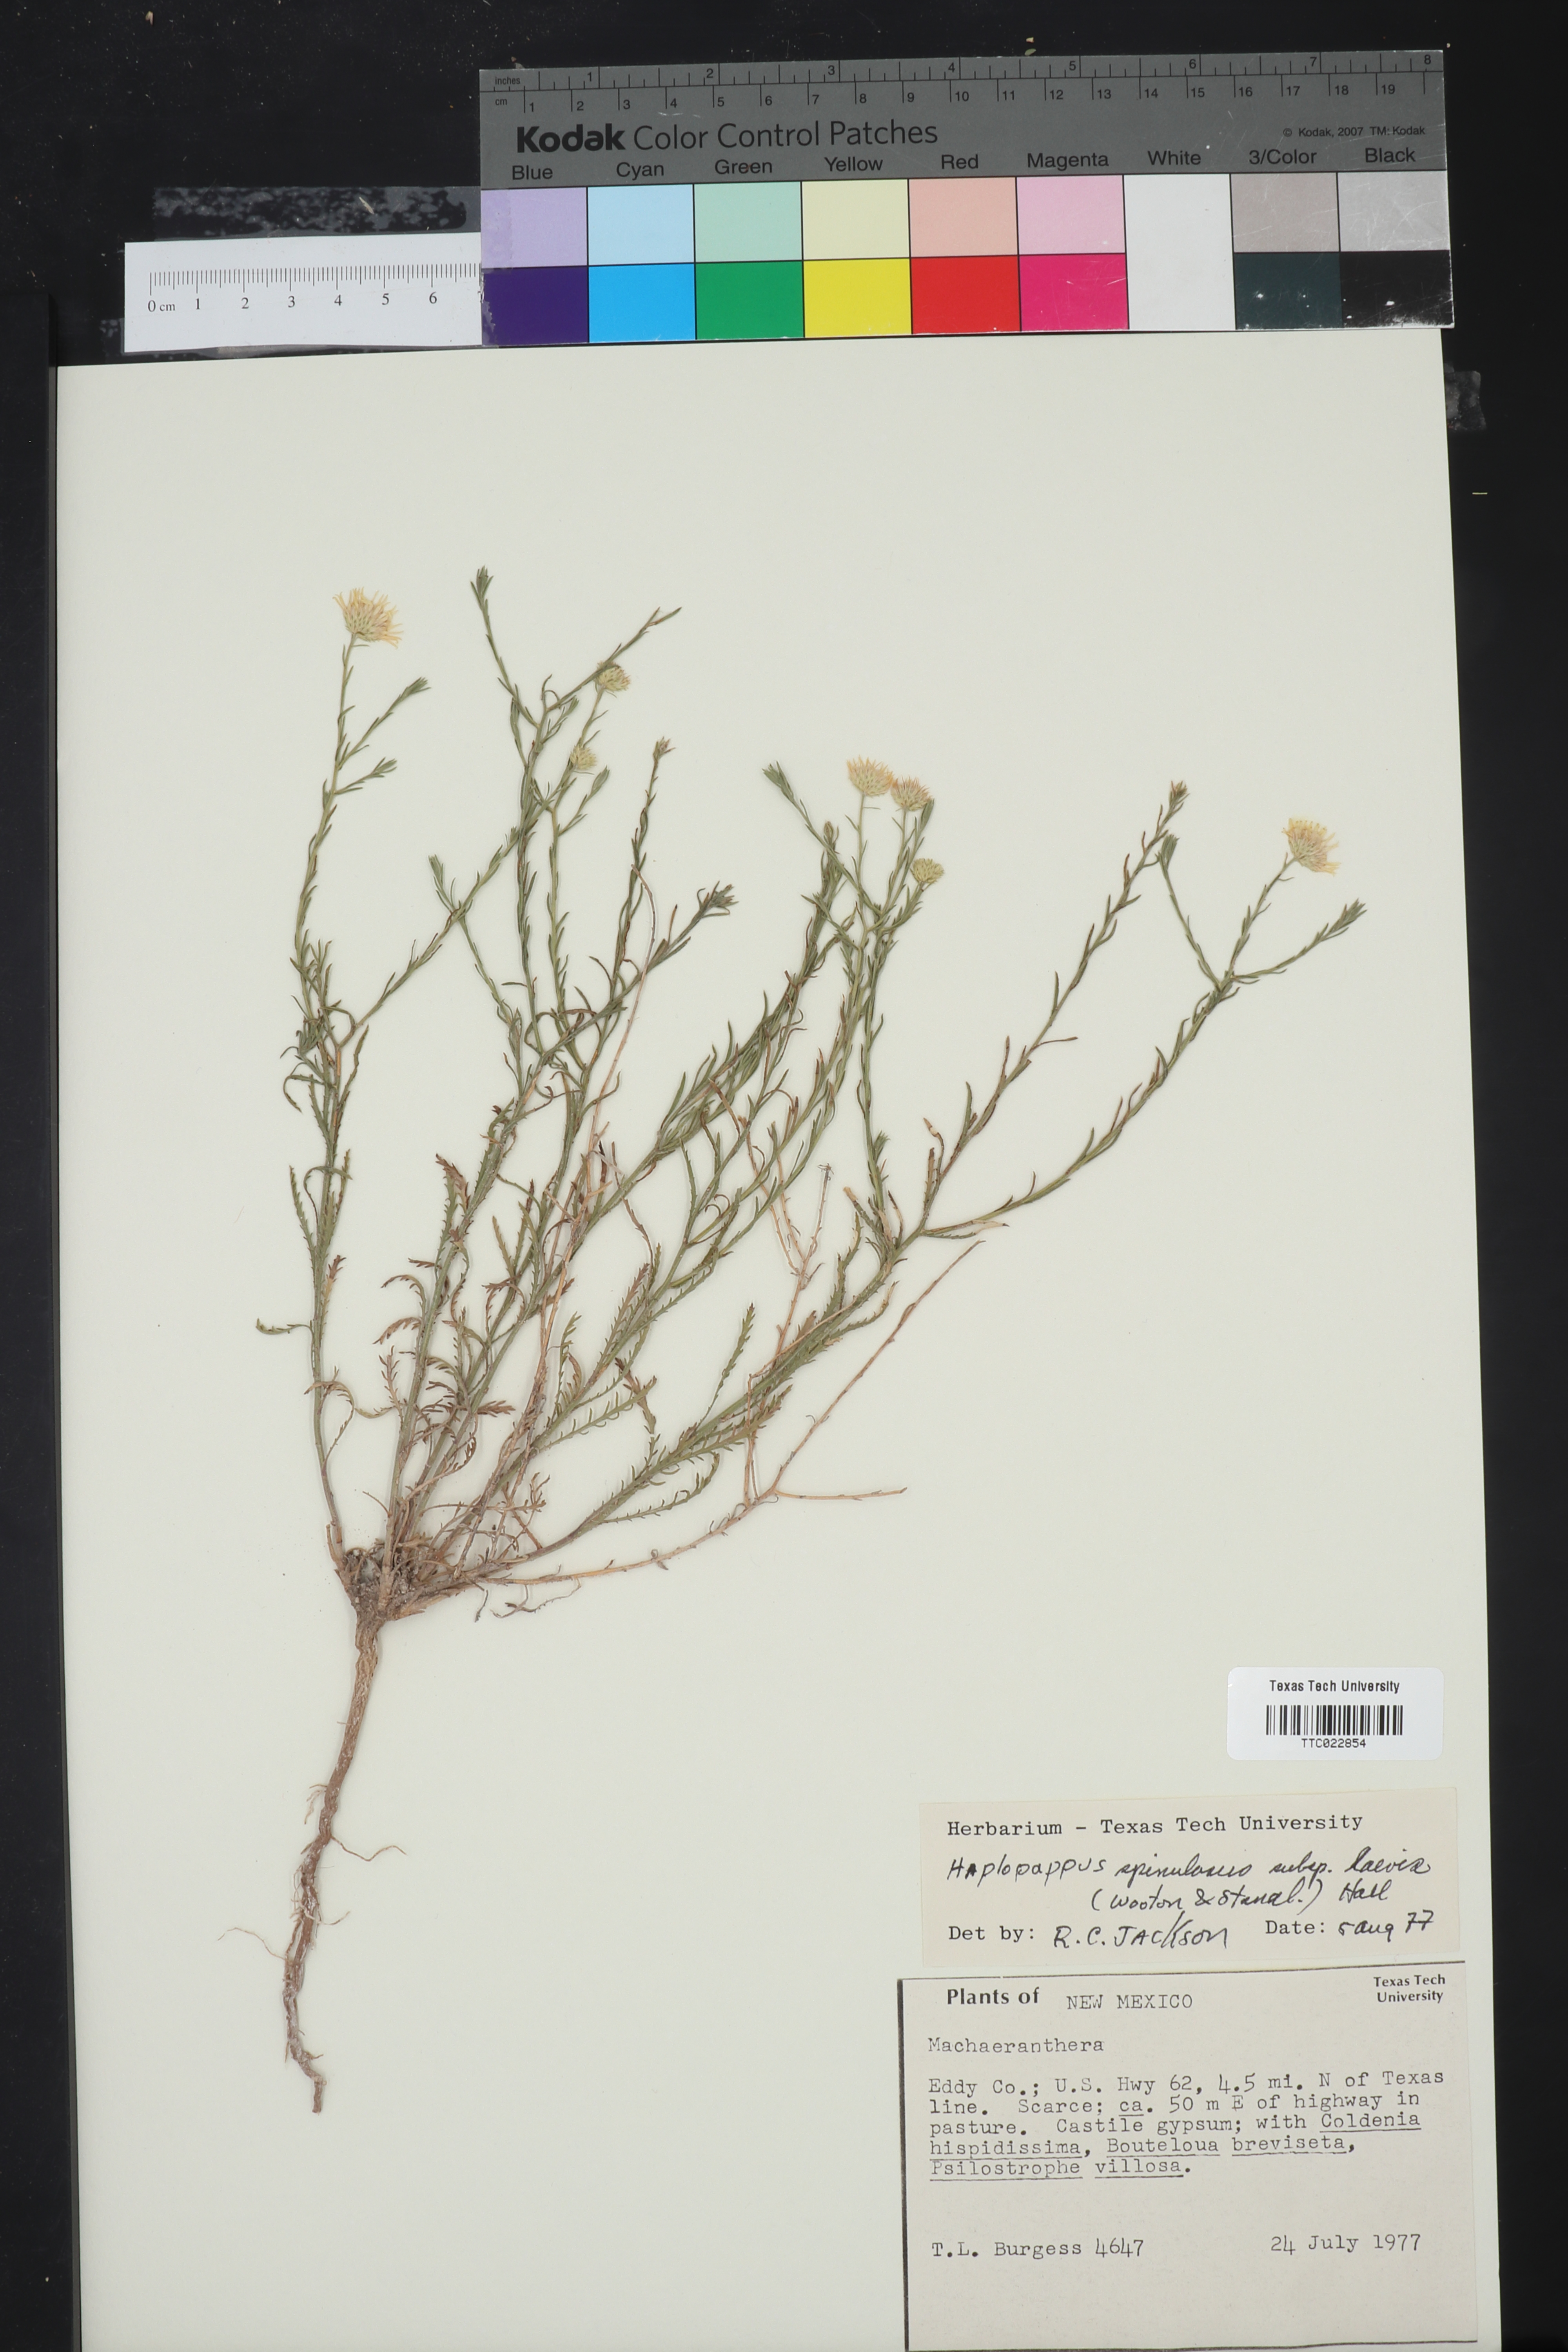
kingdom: Plantae
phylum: Tracheophyta
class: Magnoliopsida
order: Asterales
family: Asteraceae
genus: Xanthisma
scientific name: Xanthisma spinulosum
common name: Spiny goldenweed
